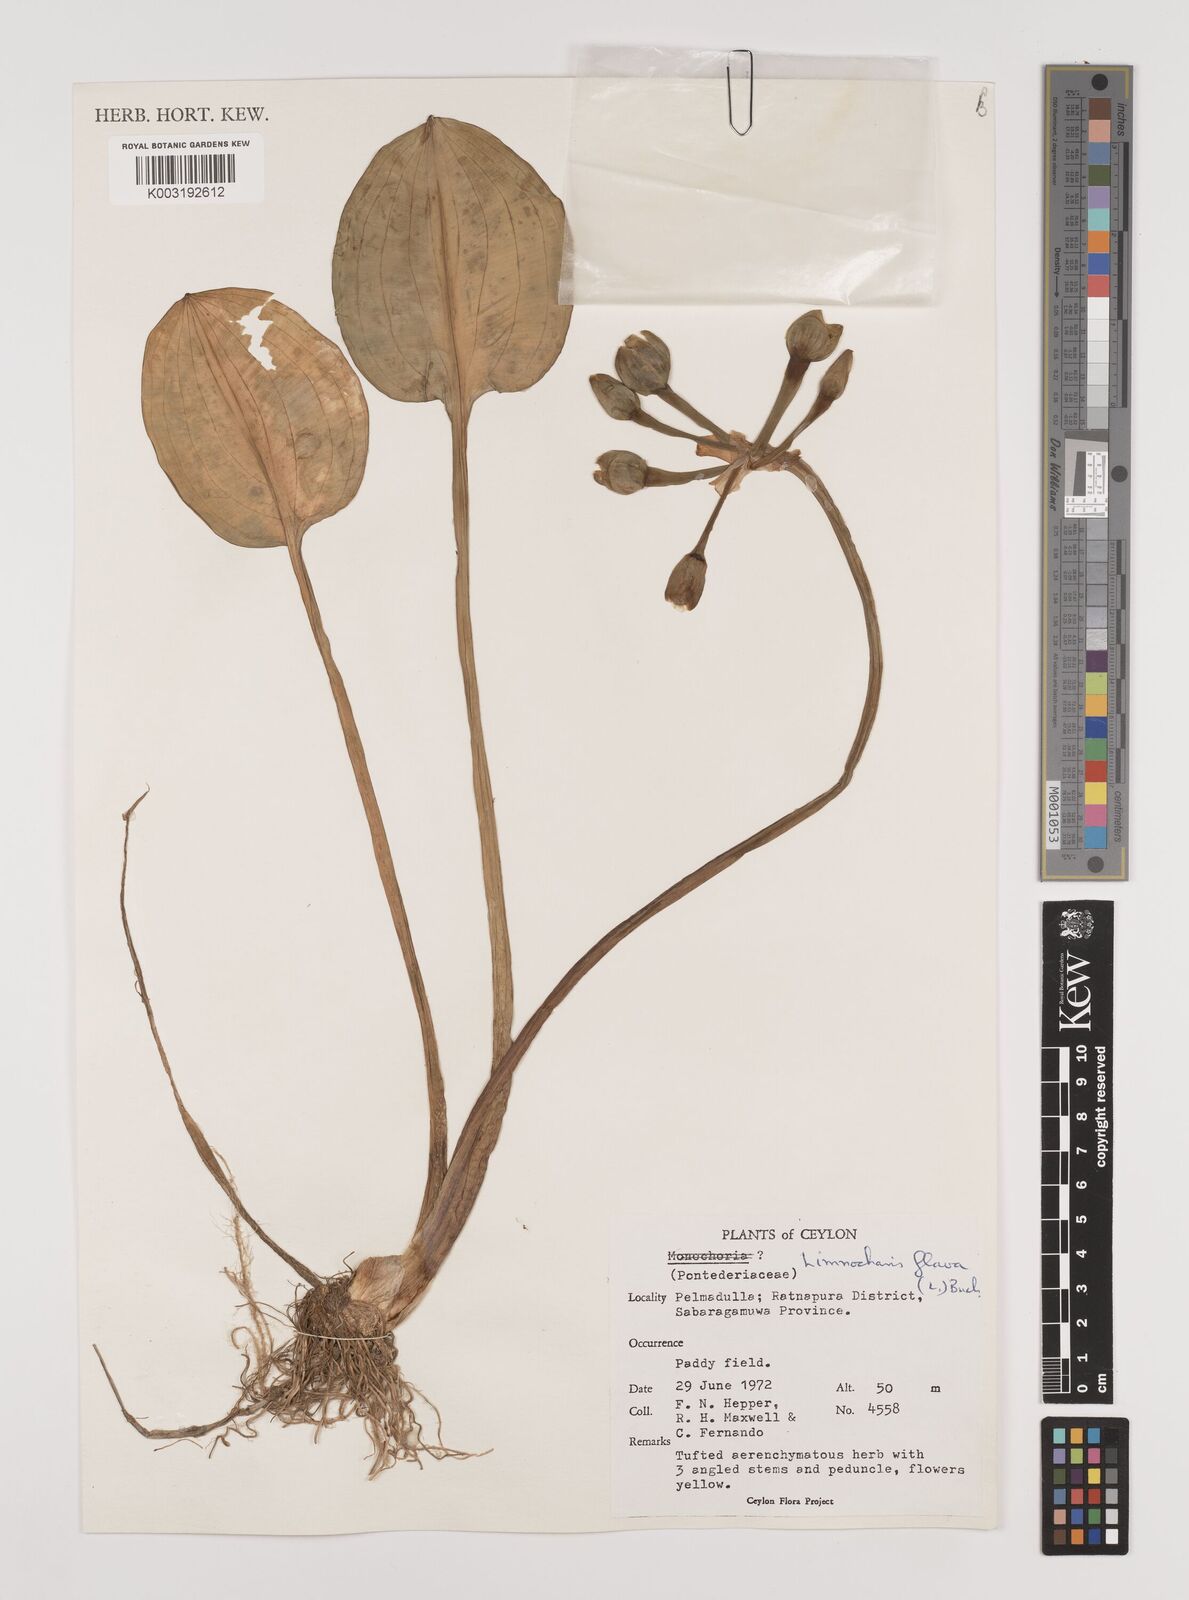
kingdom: Plantae
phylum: Tracheophyta
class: Liliopsida
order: Alismatales
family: Alismataceae
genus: Limnocharis
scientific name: Limnocharis flava
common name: Sawah-flower-rush
